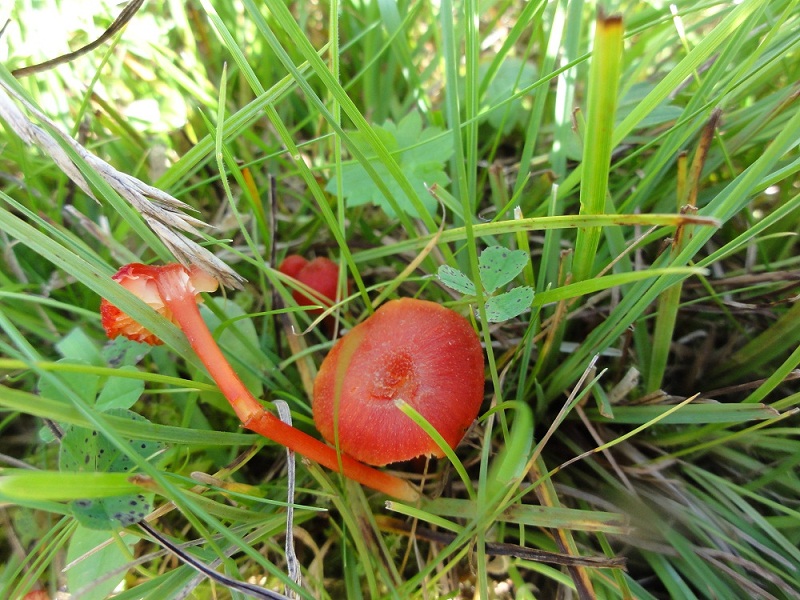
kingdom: Fungi
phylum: Basidiomycota
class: Agaricomycetes
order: Agaricales
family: Hygrophoraceae
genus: Hygrocybe
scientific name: Hygrocybe helobia
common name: hvidløgs-vokshat
